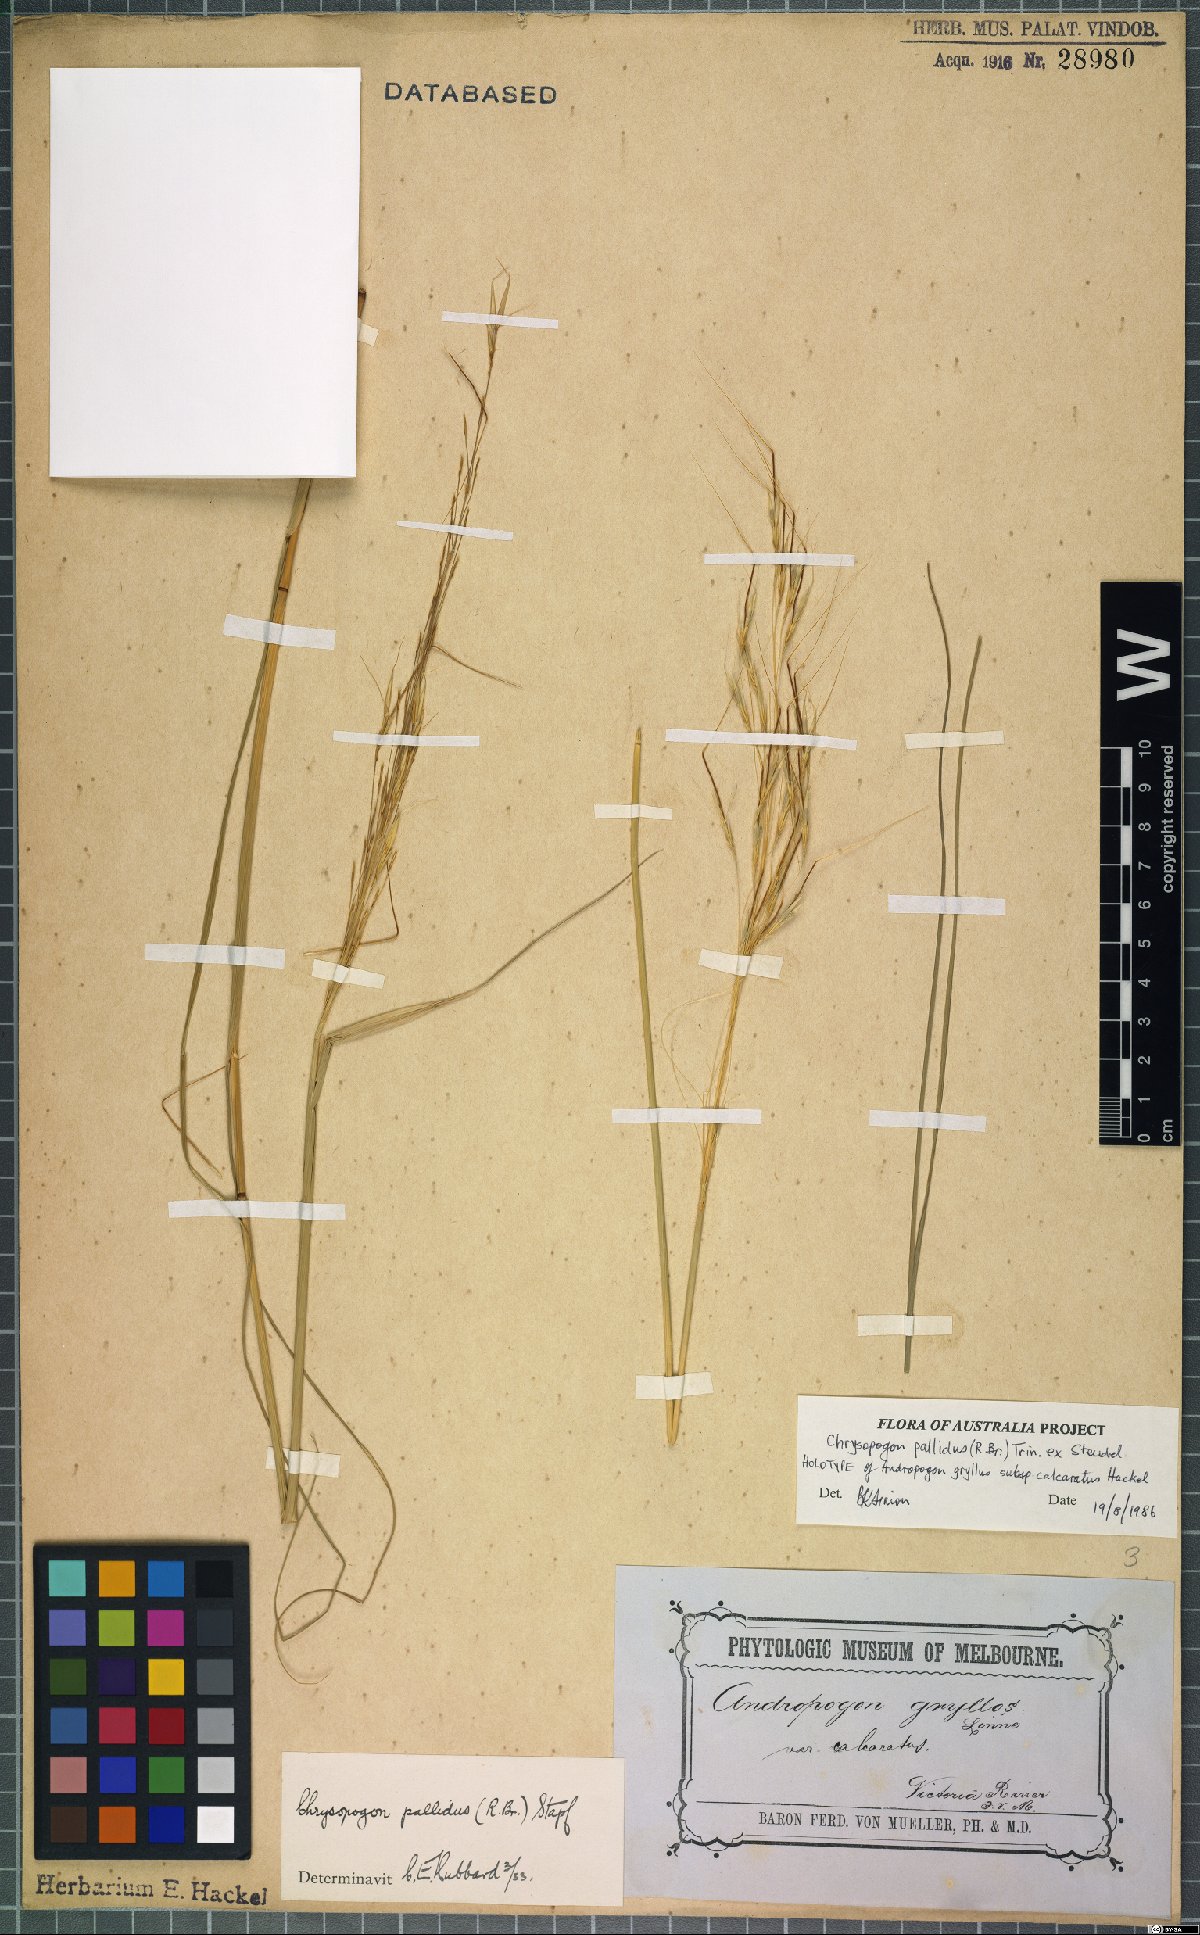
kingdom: Plantae
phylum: Tracheophyta
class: Liliopsida
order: Poales
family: Poaceae
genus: Chrysopogon
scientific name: Chrysopogon pallidus
